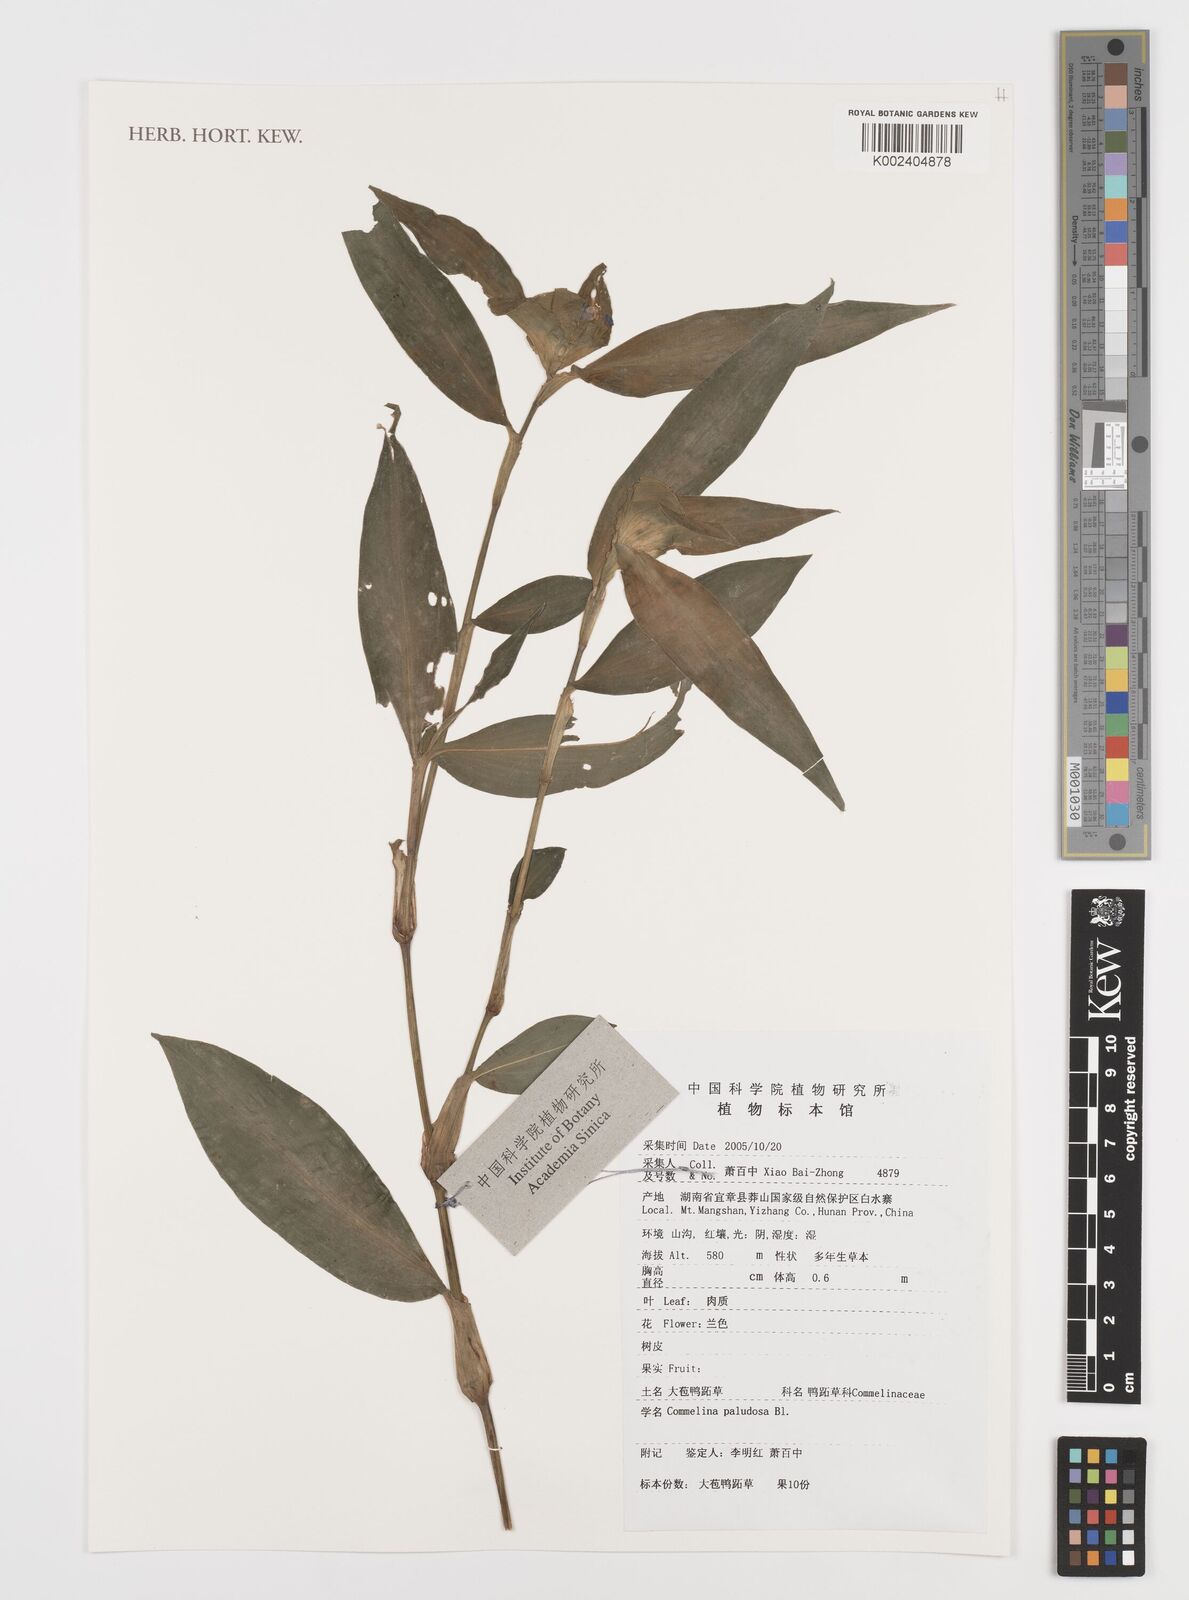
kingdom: Plantae
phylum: Tracheophyta
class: Liliopsida
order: Commelinales
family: Commelinaceae
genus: Commelina
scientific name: Commelina paludosa
